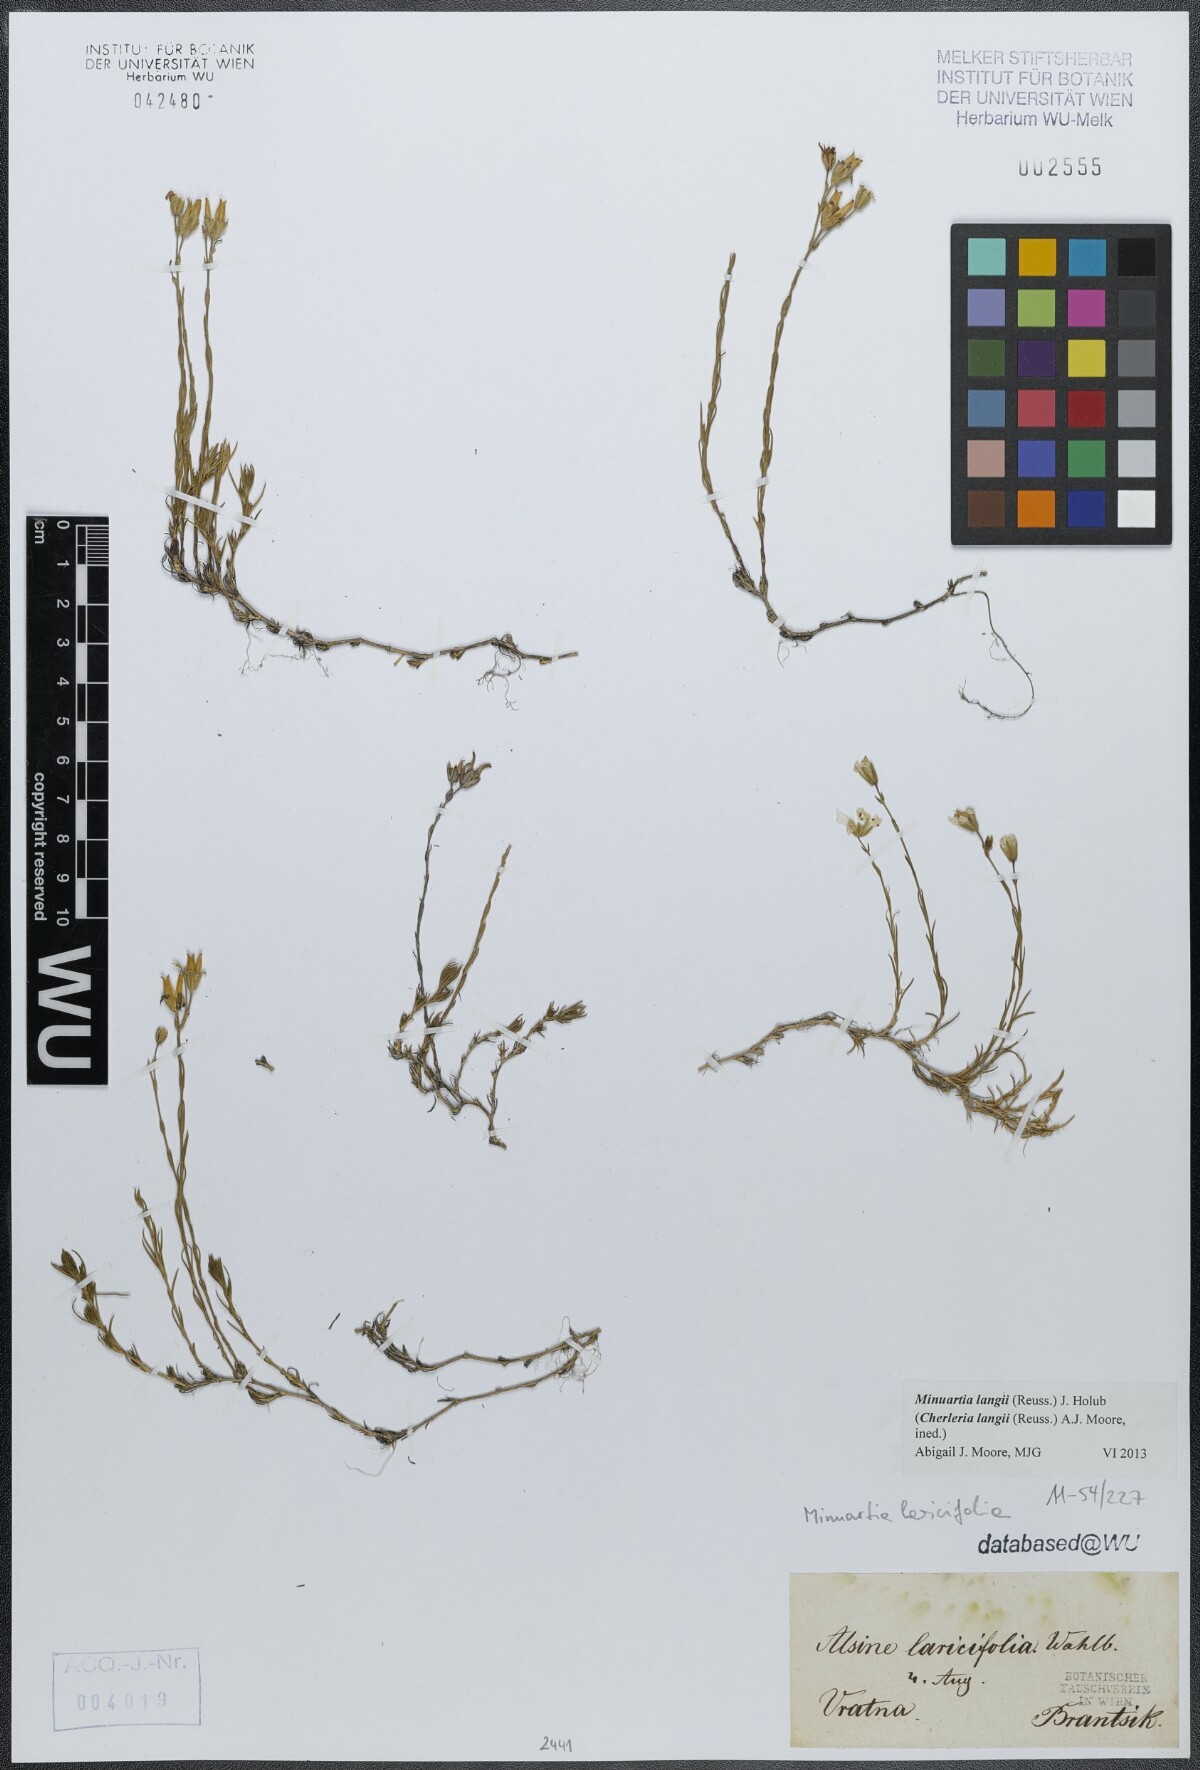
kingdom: Plantae
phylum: Tracheophyta
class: Magnoliopsida
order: Caryophyllales
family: Caryophyllaceae
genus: Cherleria
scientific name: Cherleria langii
